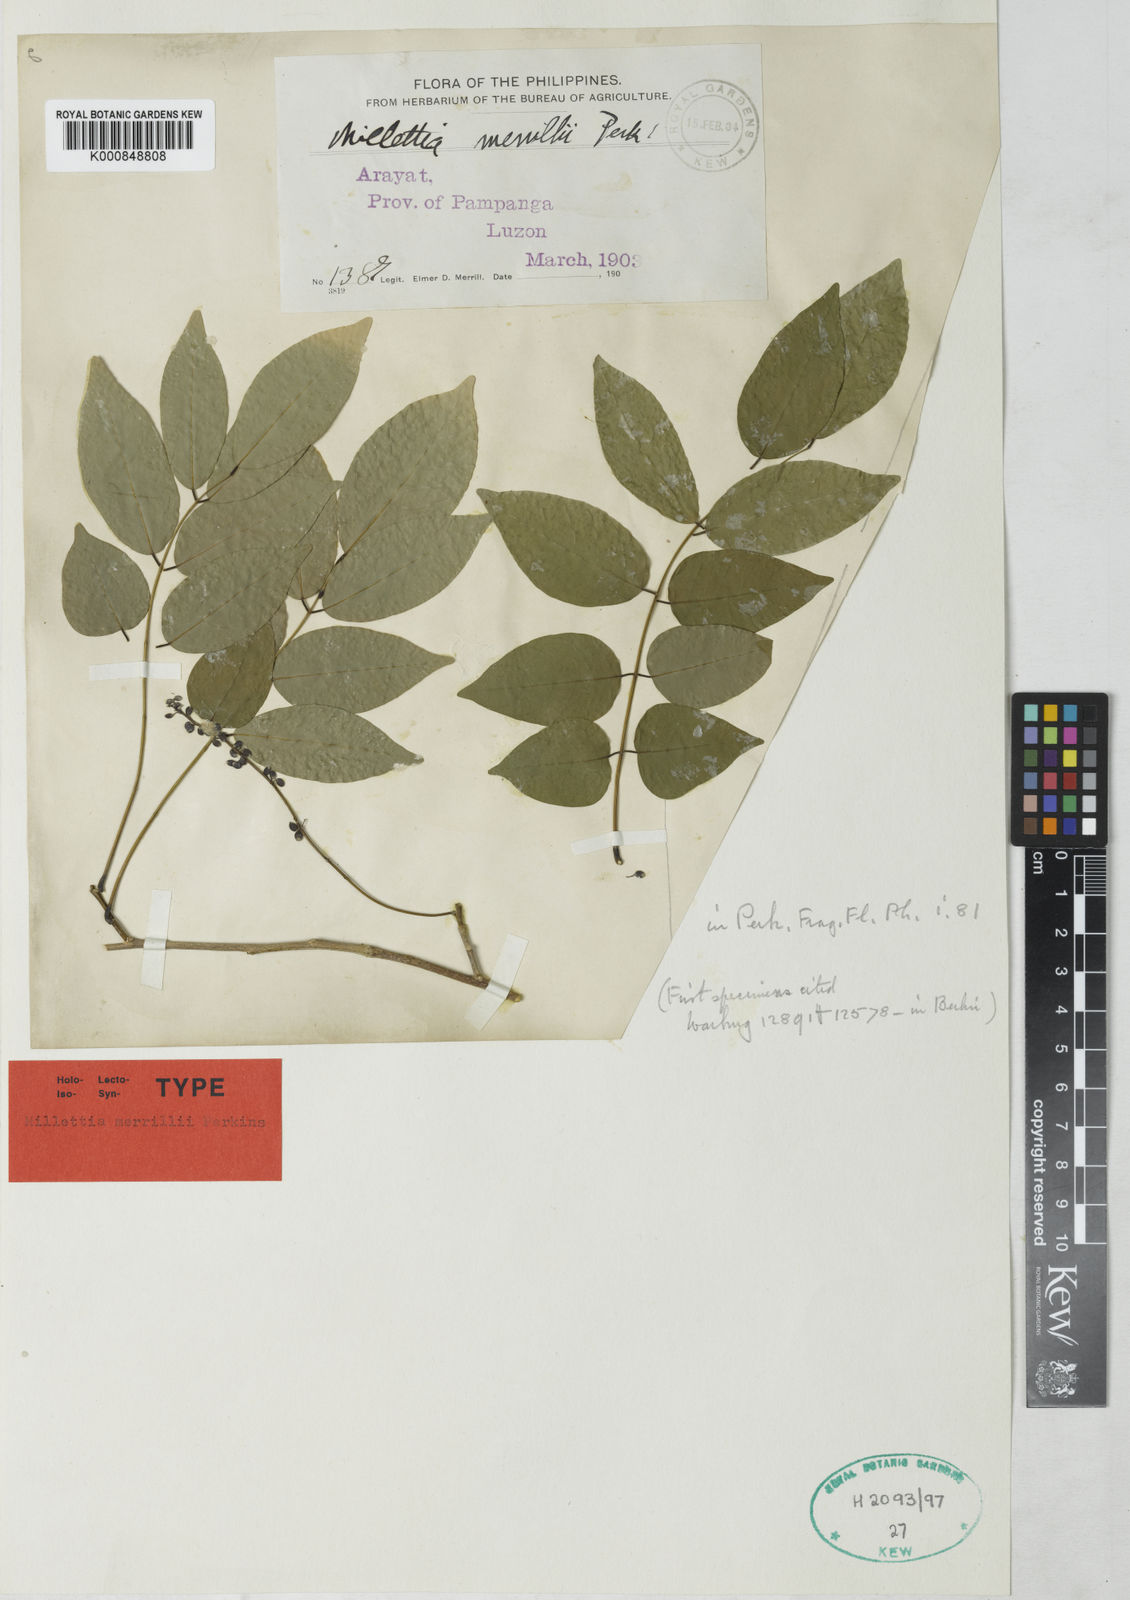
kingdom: Plantae
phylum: Tracheophyta
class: Magnoliopsida
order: Fabales
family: Fabaceae
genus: Millettia
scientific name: Millettia merrillii
